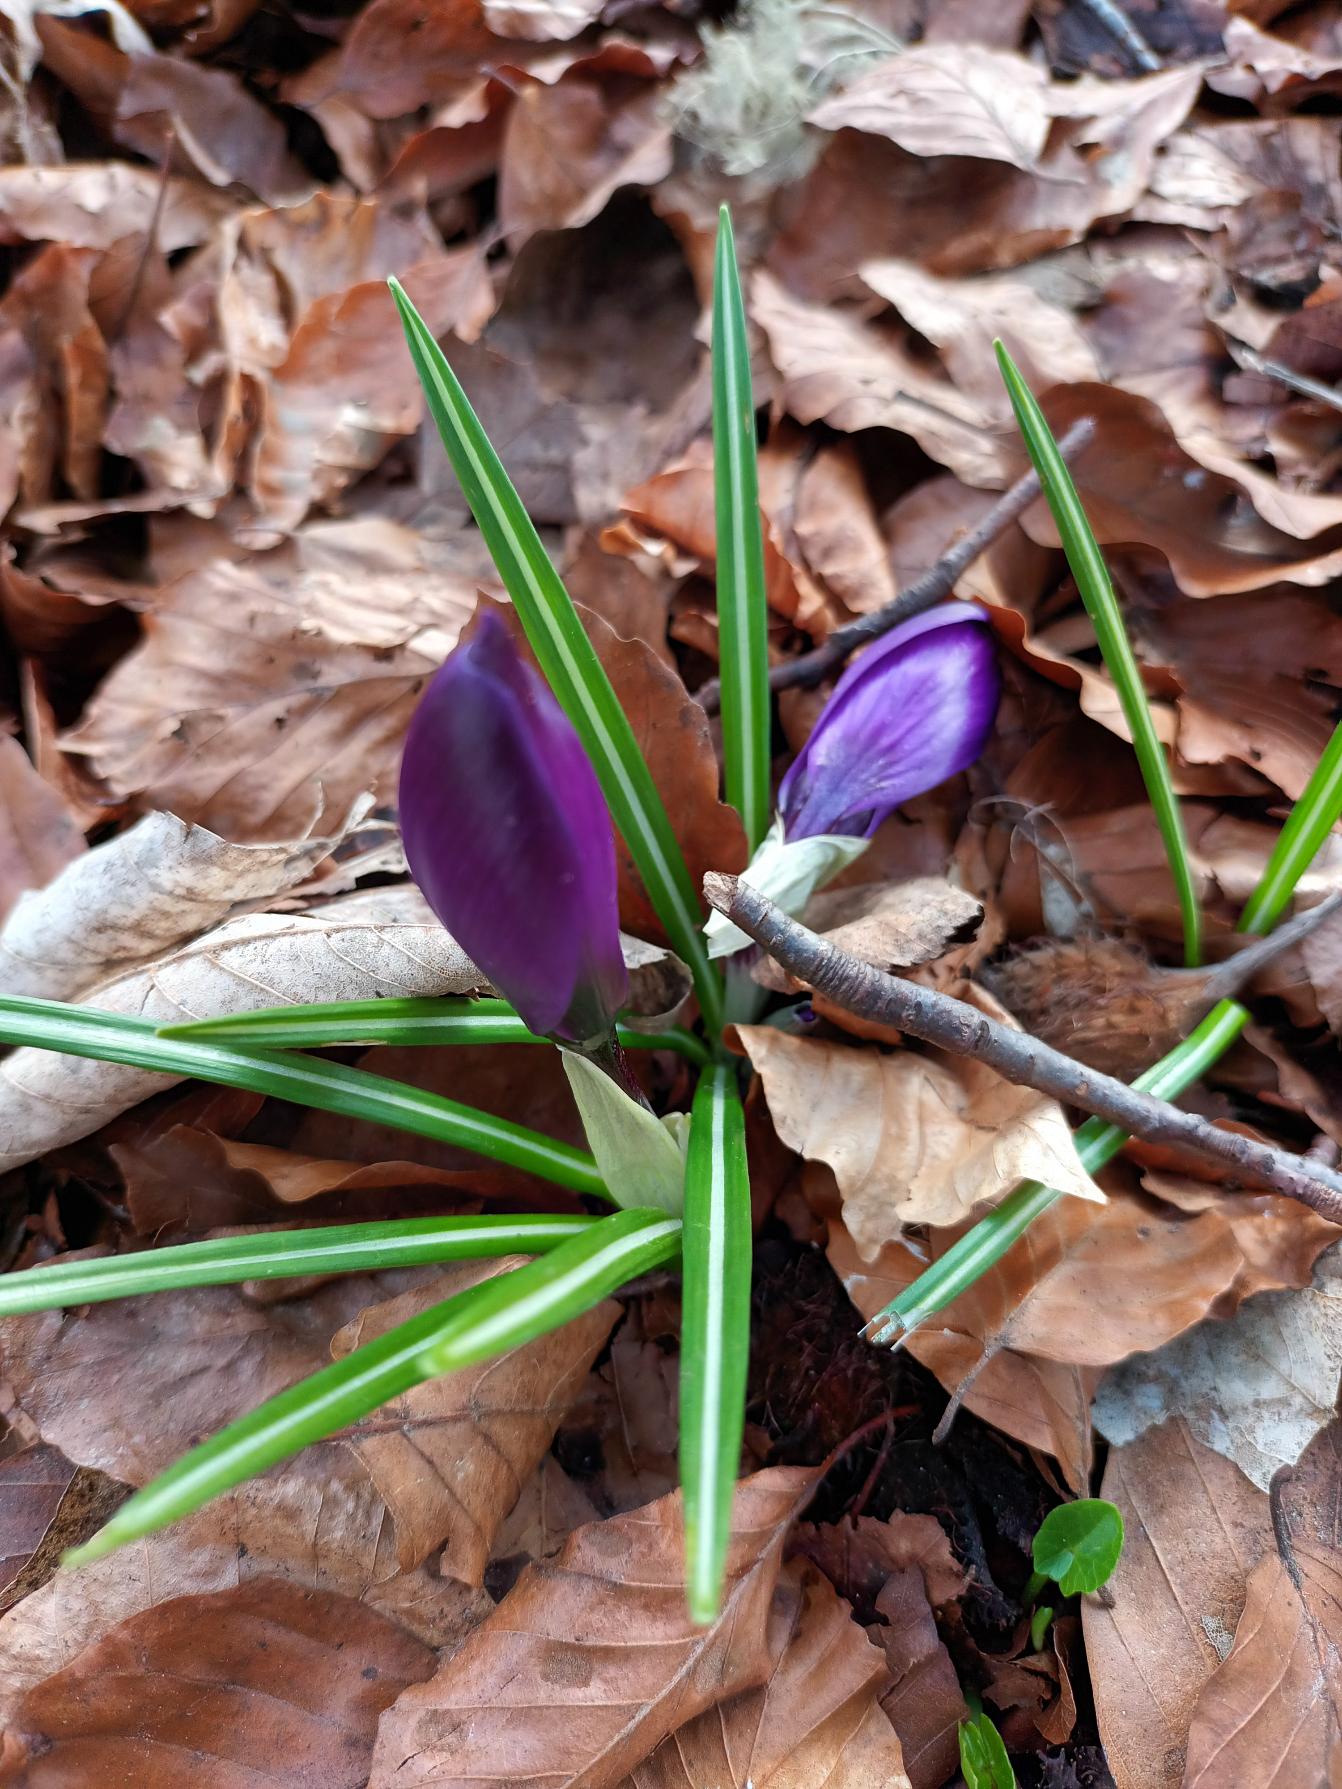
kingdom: Plantae
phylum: Tracheophyta
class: Liliopsida
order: Asparagales
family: Iridaceae
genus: Crocus
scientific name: Crocus vernus
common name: Vår-krokus
